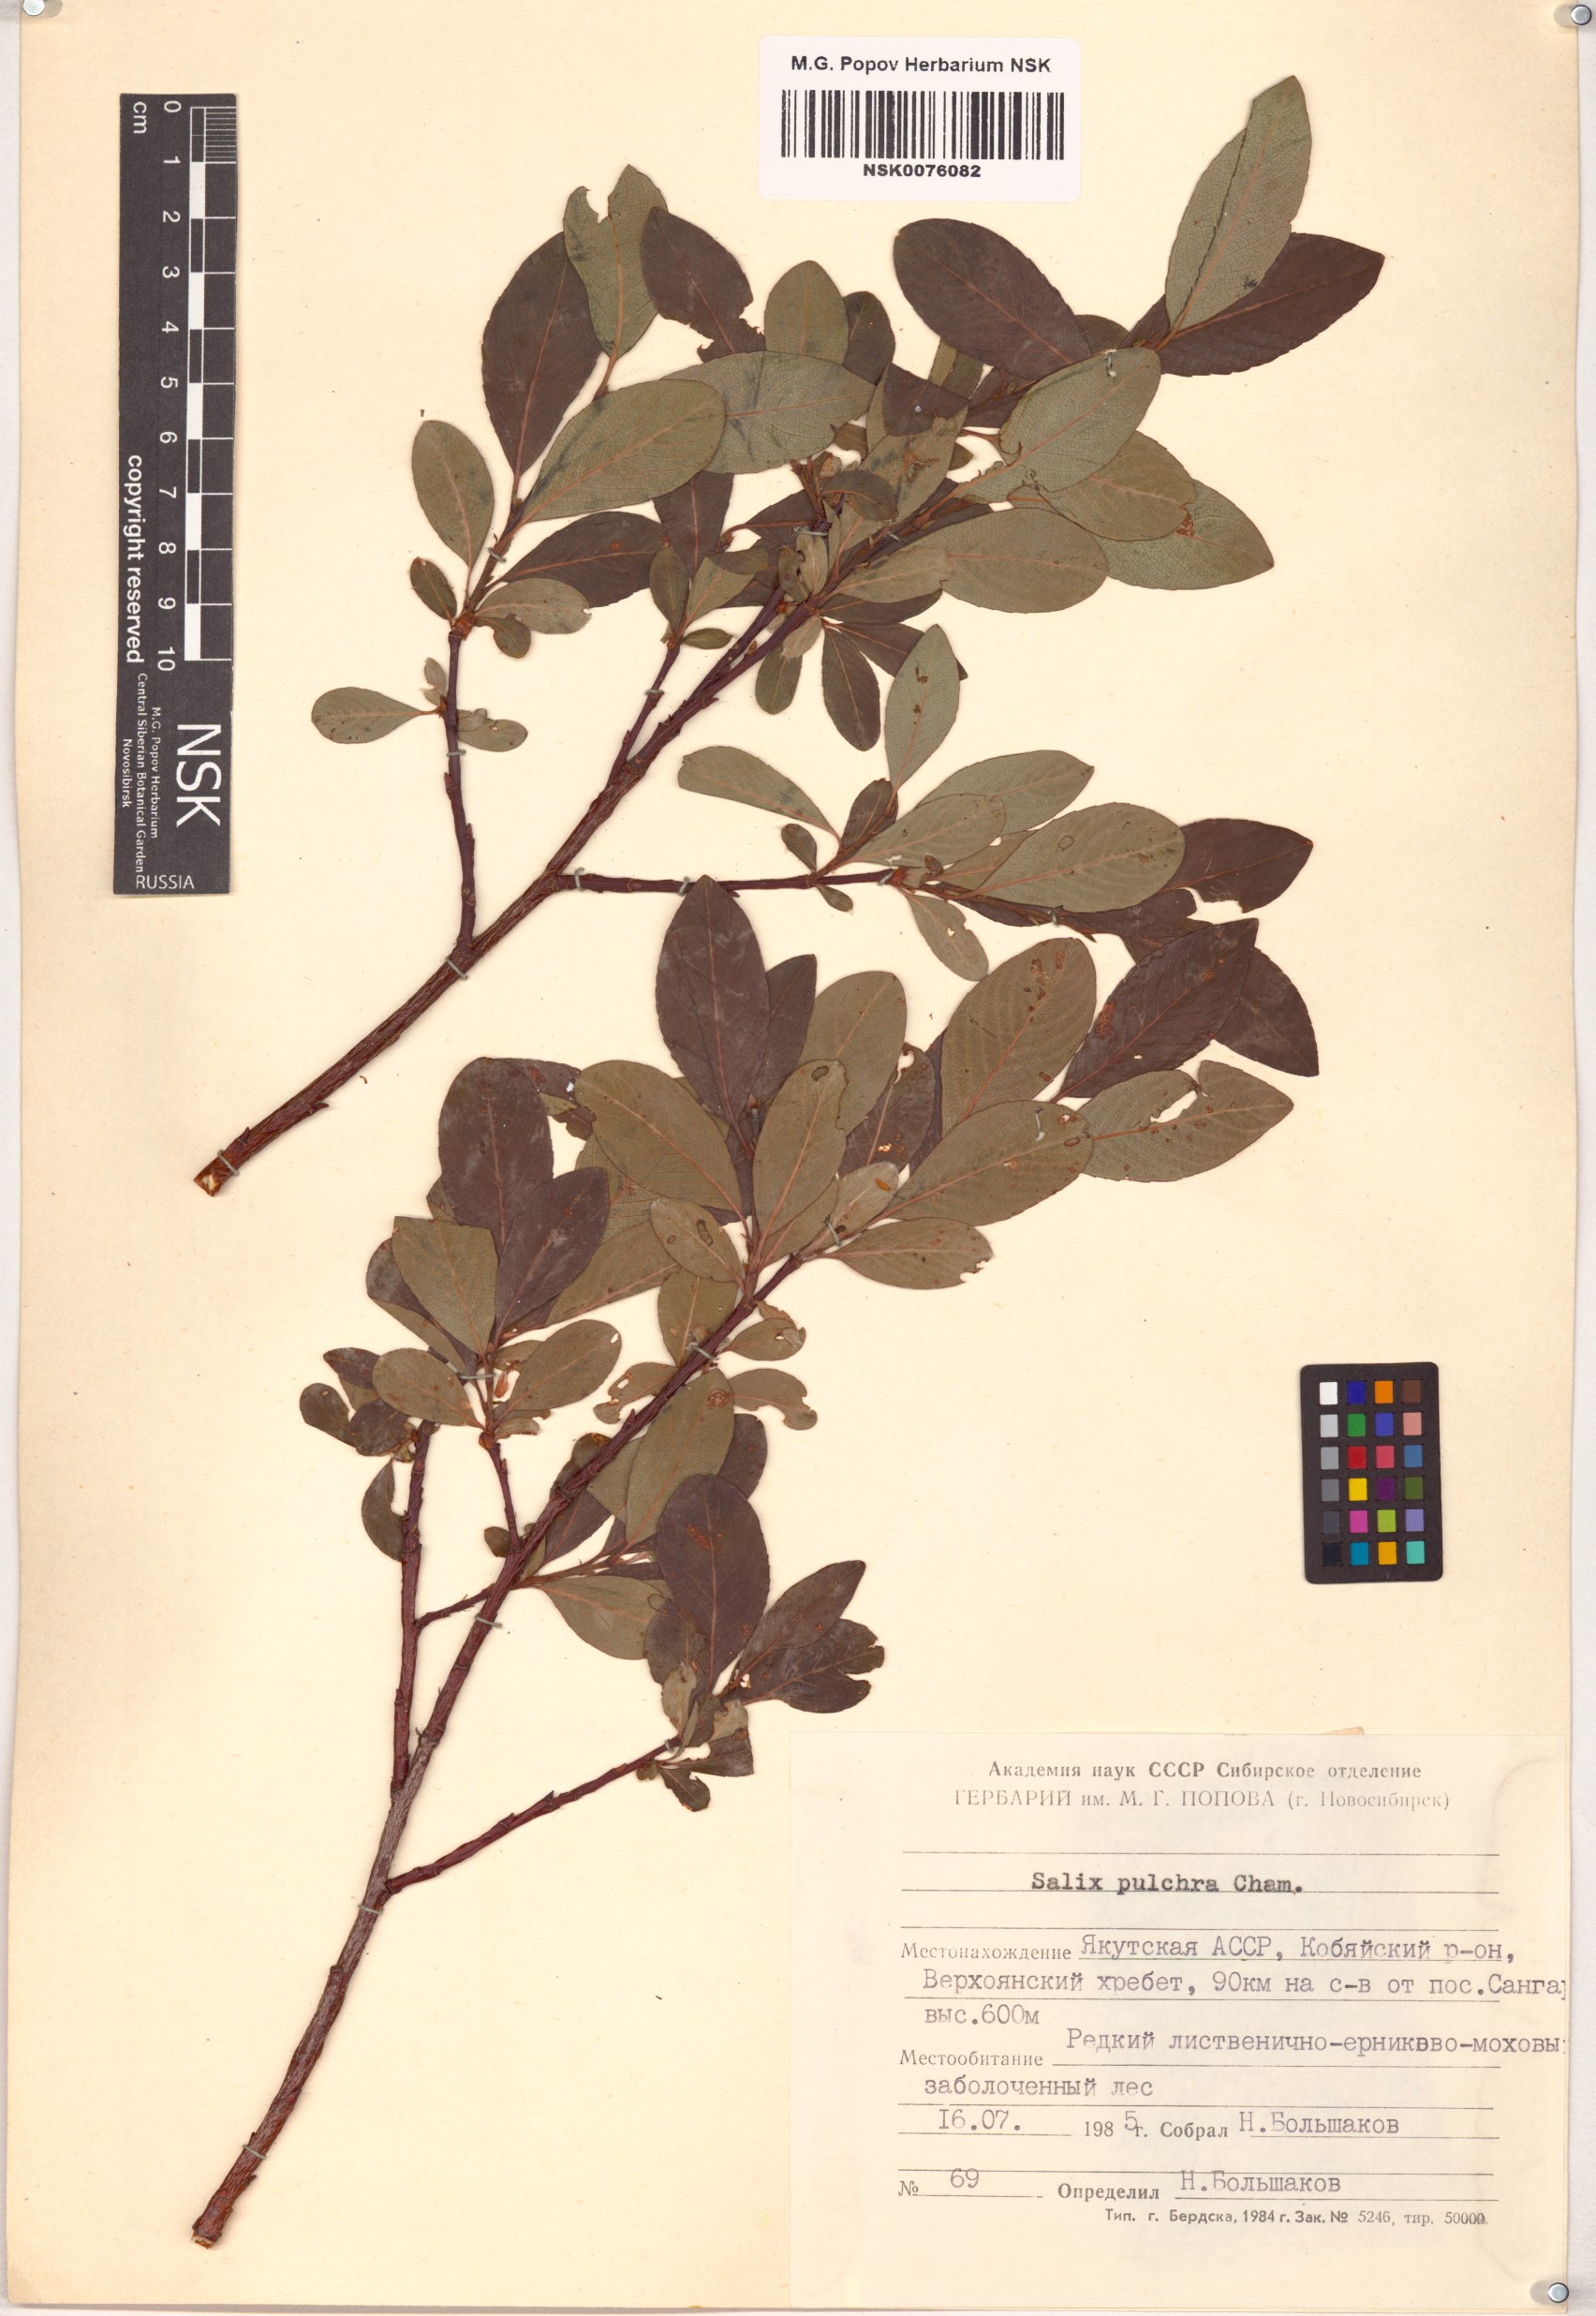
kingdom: Plantae
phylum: Tracheophyta
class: Magnoliopsida
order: Malpighiales
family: Salicaceae
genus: Salix
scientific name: Salix pulchra
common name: Diamond-leaved willow
